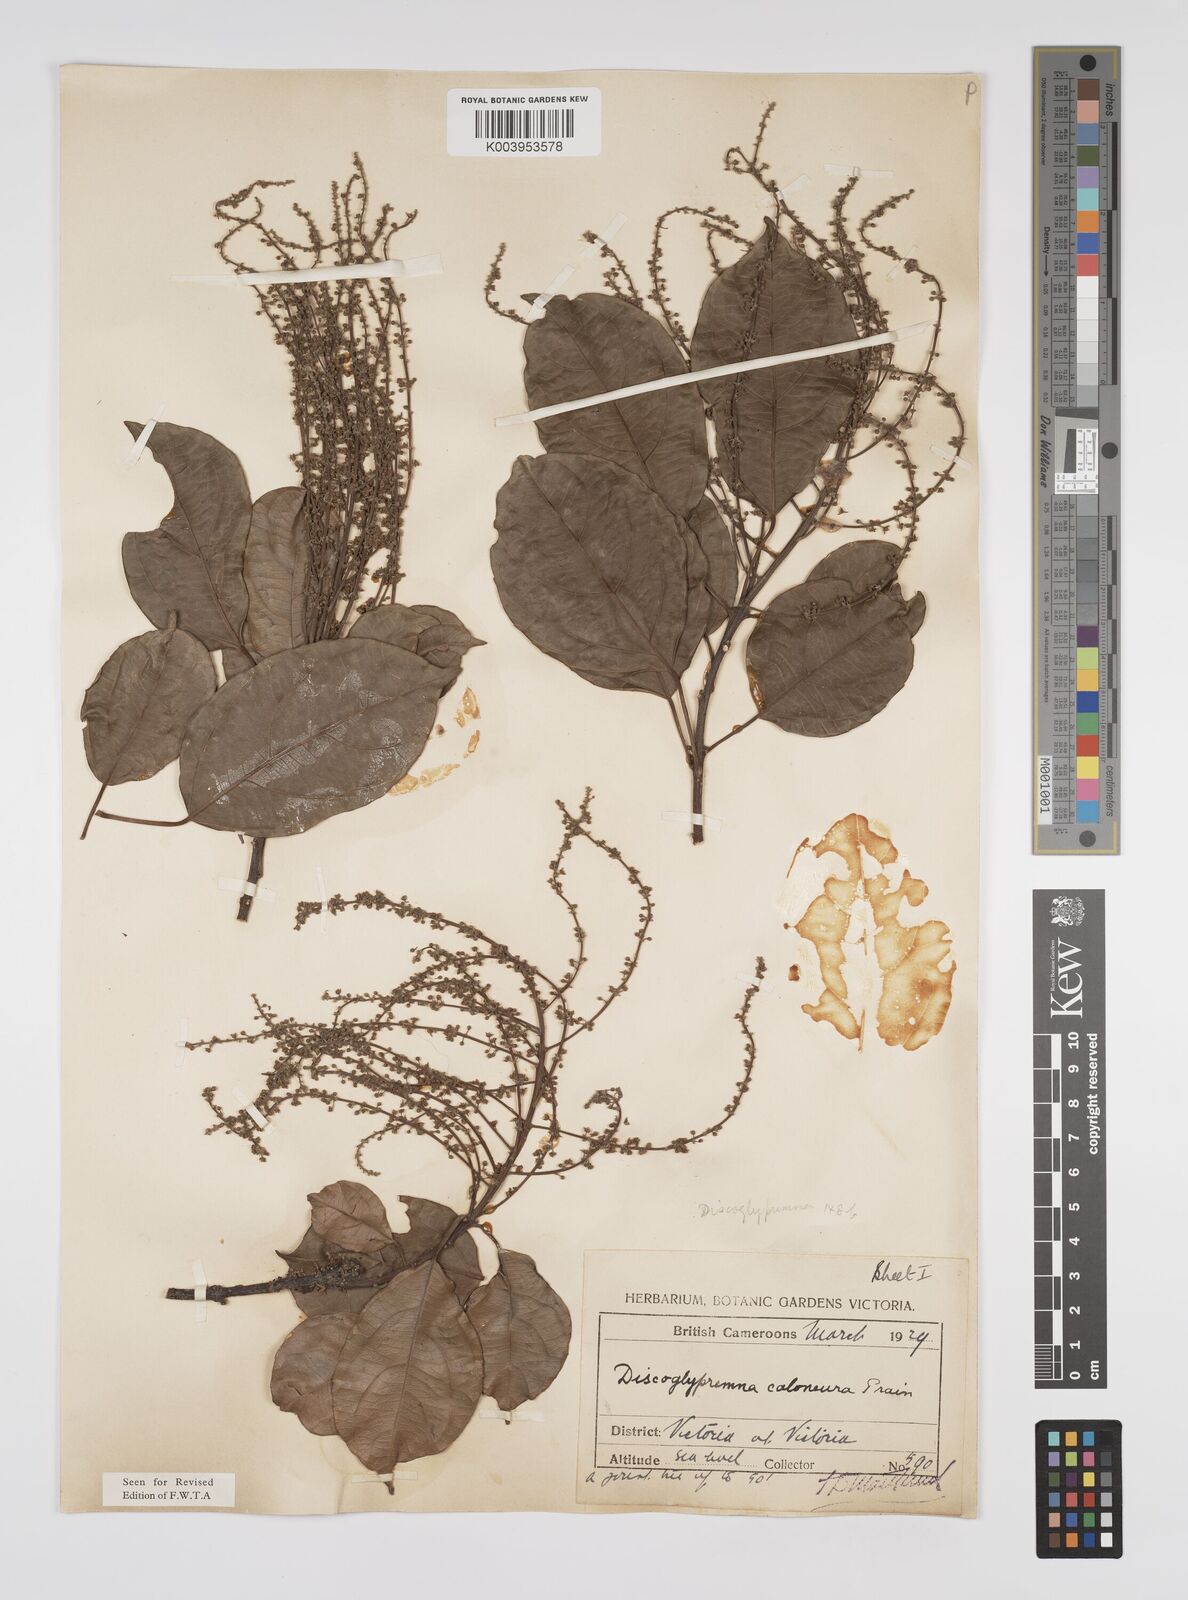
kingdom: Plantae
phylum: Tracheophyta
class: Magnoliopsida
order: Malpighiales
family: Euphorbiaceae
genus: Discoglypremna
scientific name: Discoglypremna caloneura
